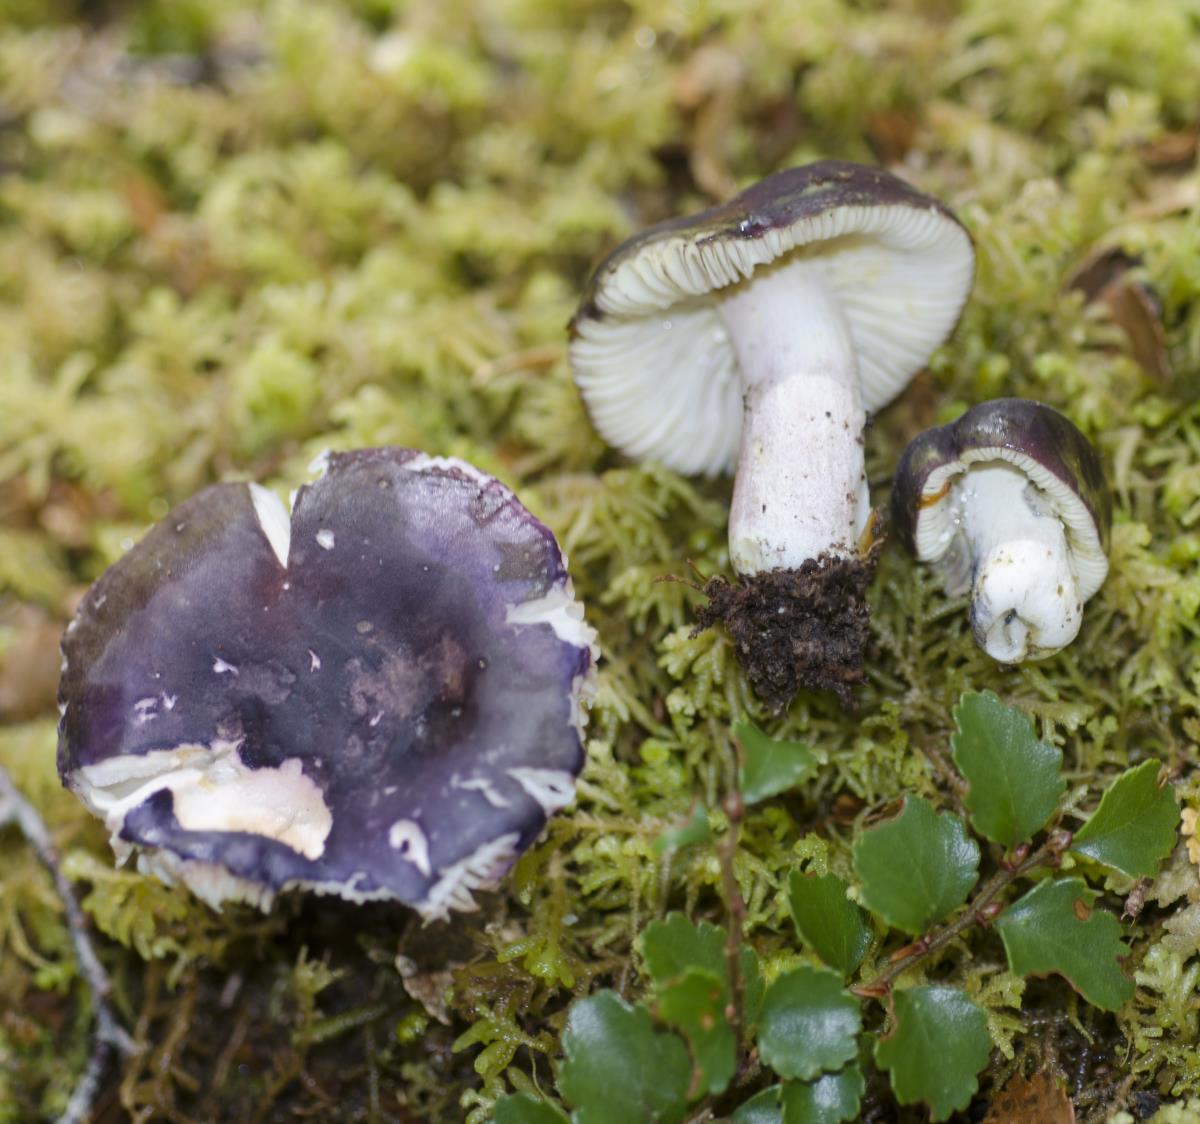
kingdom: Fungi
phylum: Basidiomycota
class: Agaricomycetes
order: Russulales
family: Russulaceae
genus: Russula
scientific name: Russula macrocystidiata
